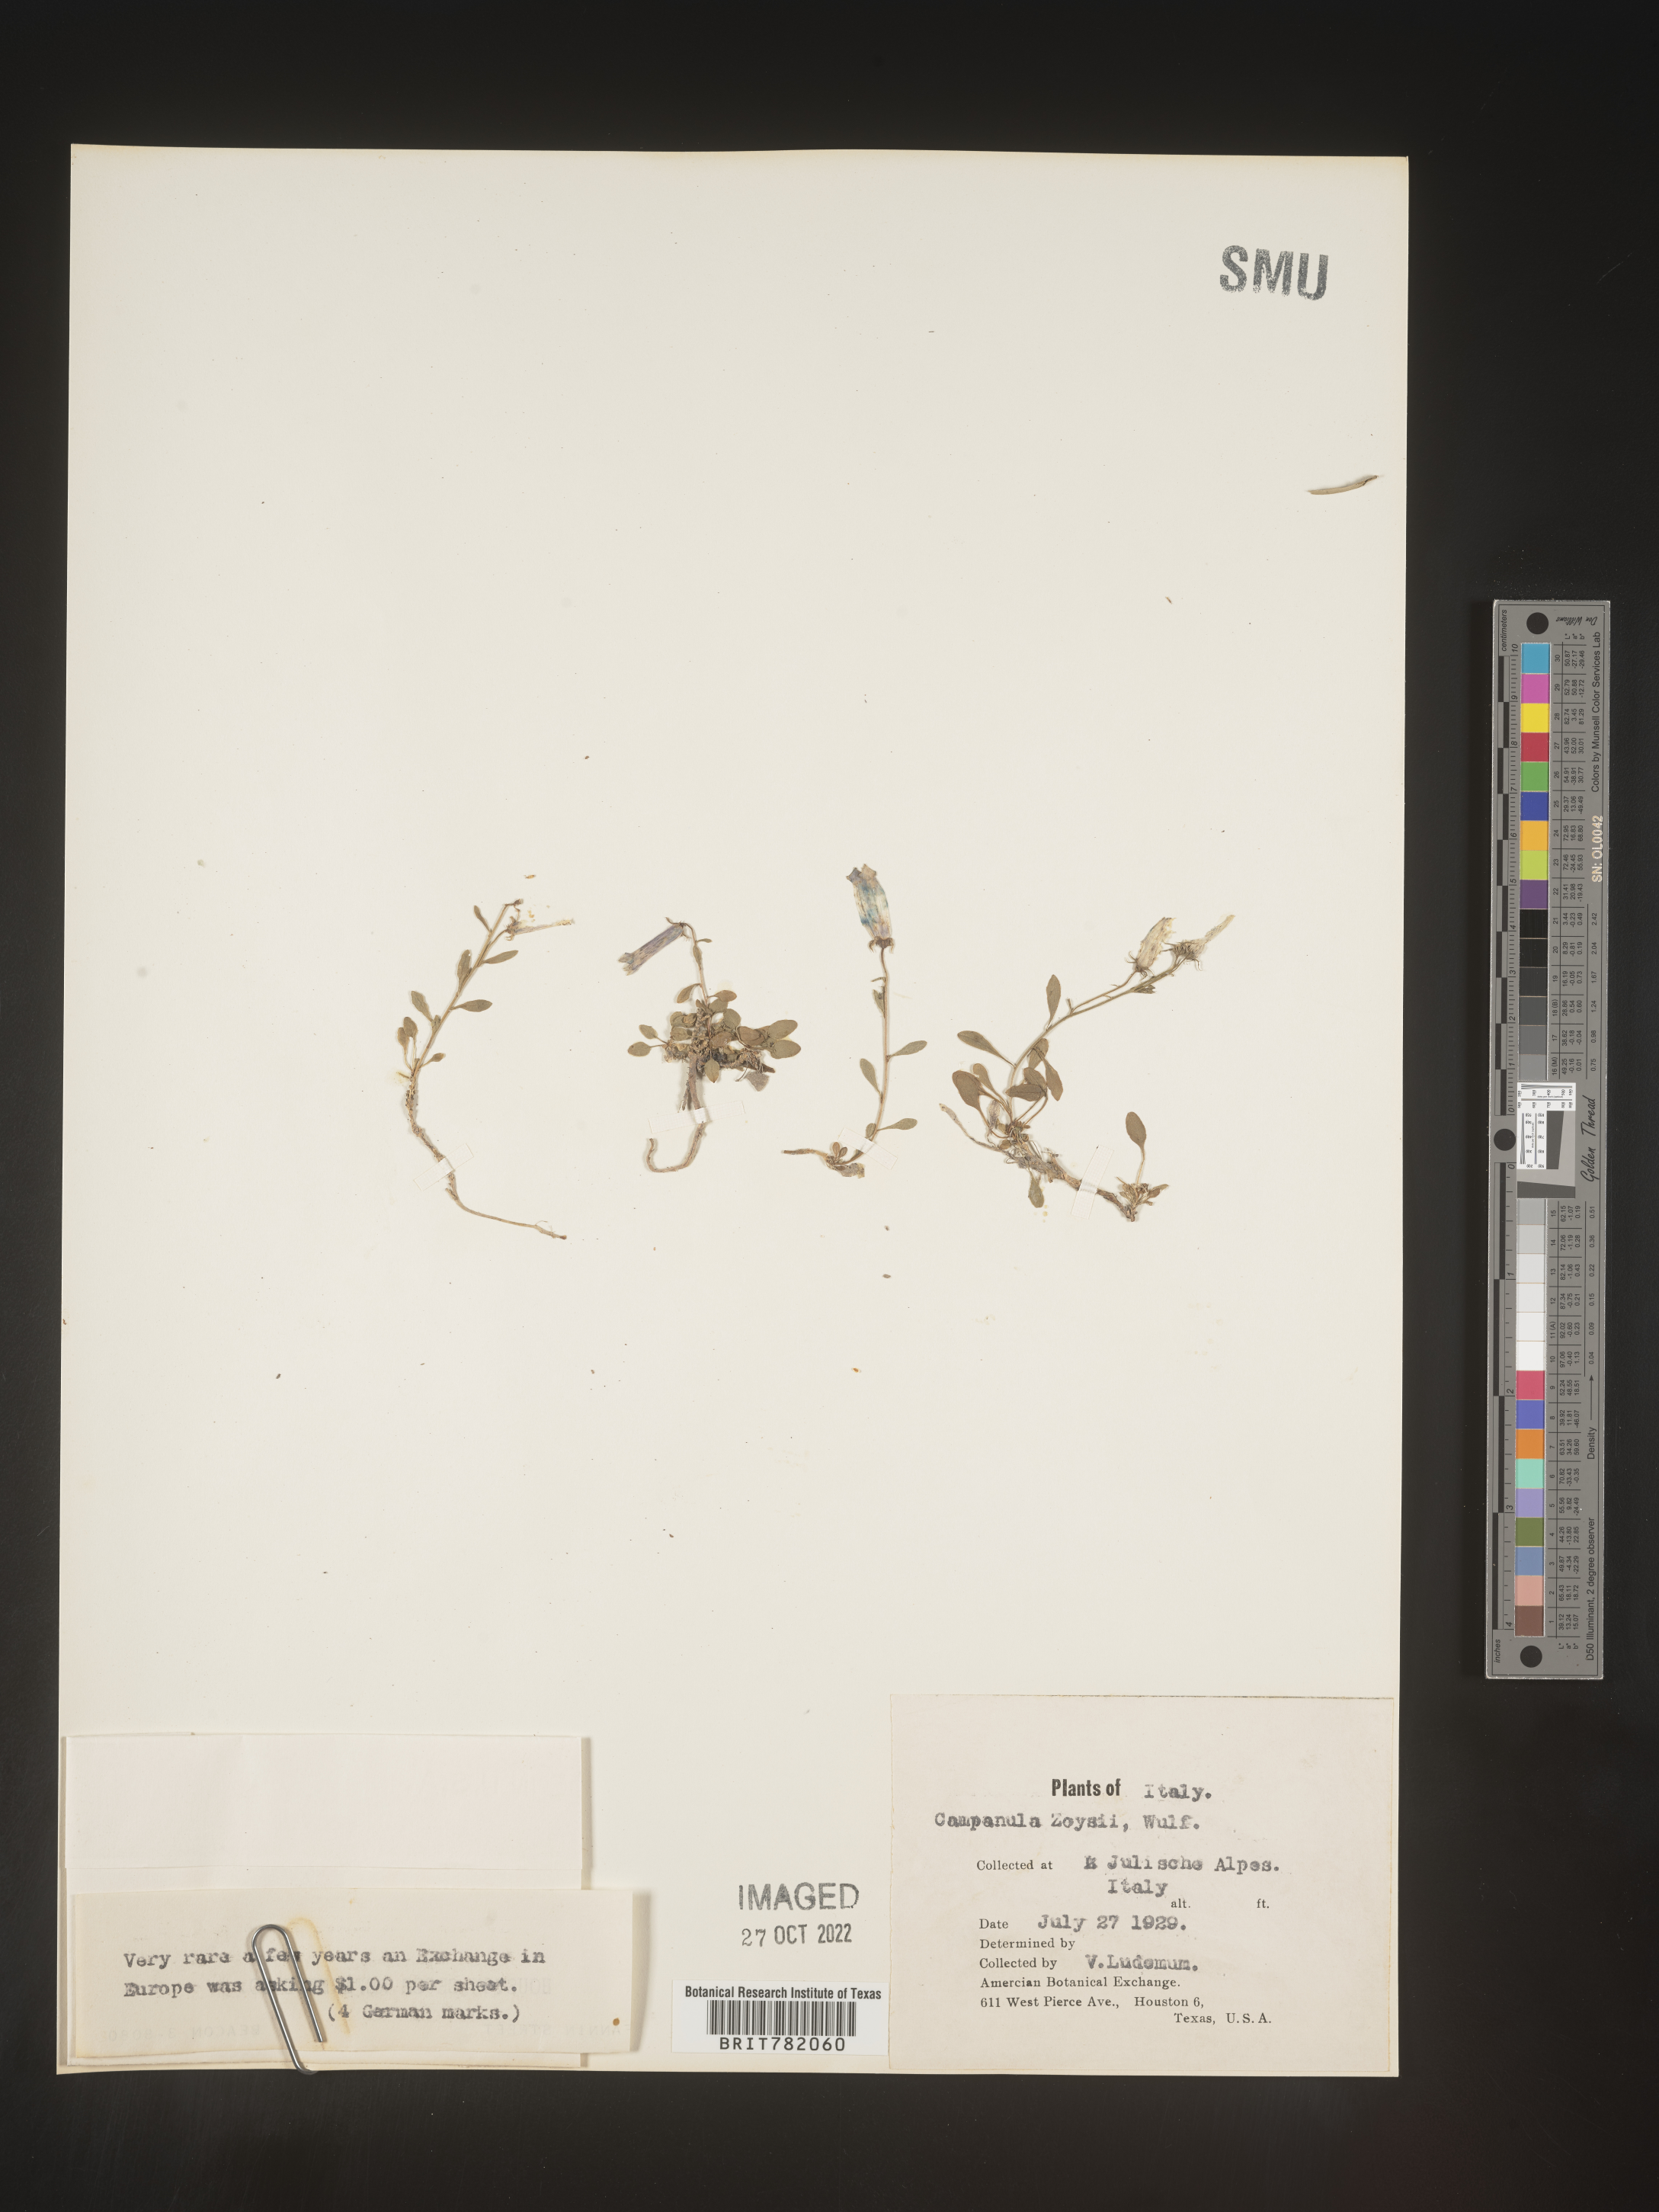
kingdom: Plantae
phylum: Tracheophyta
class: Magnoliopsida
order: Asterales
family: Campanulaceae
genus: Campanula
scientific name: Campanula
